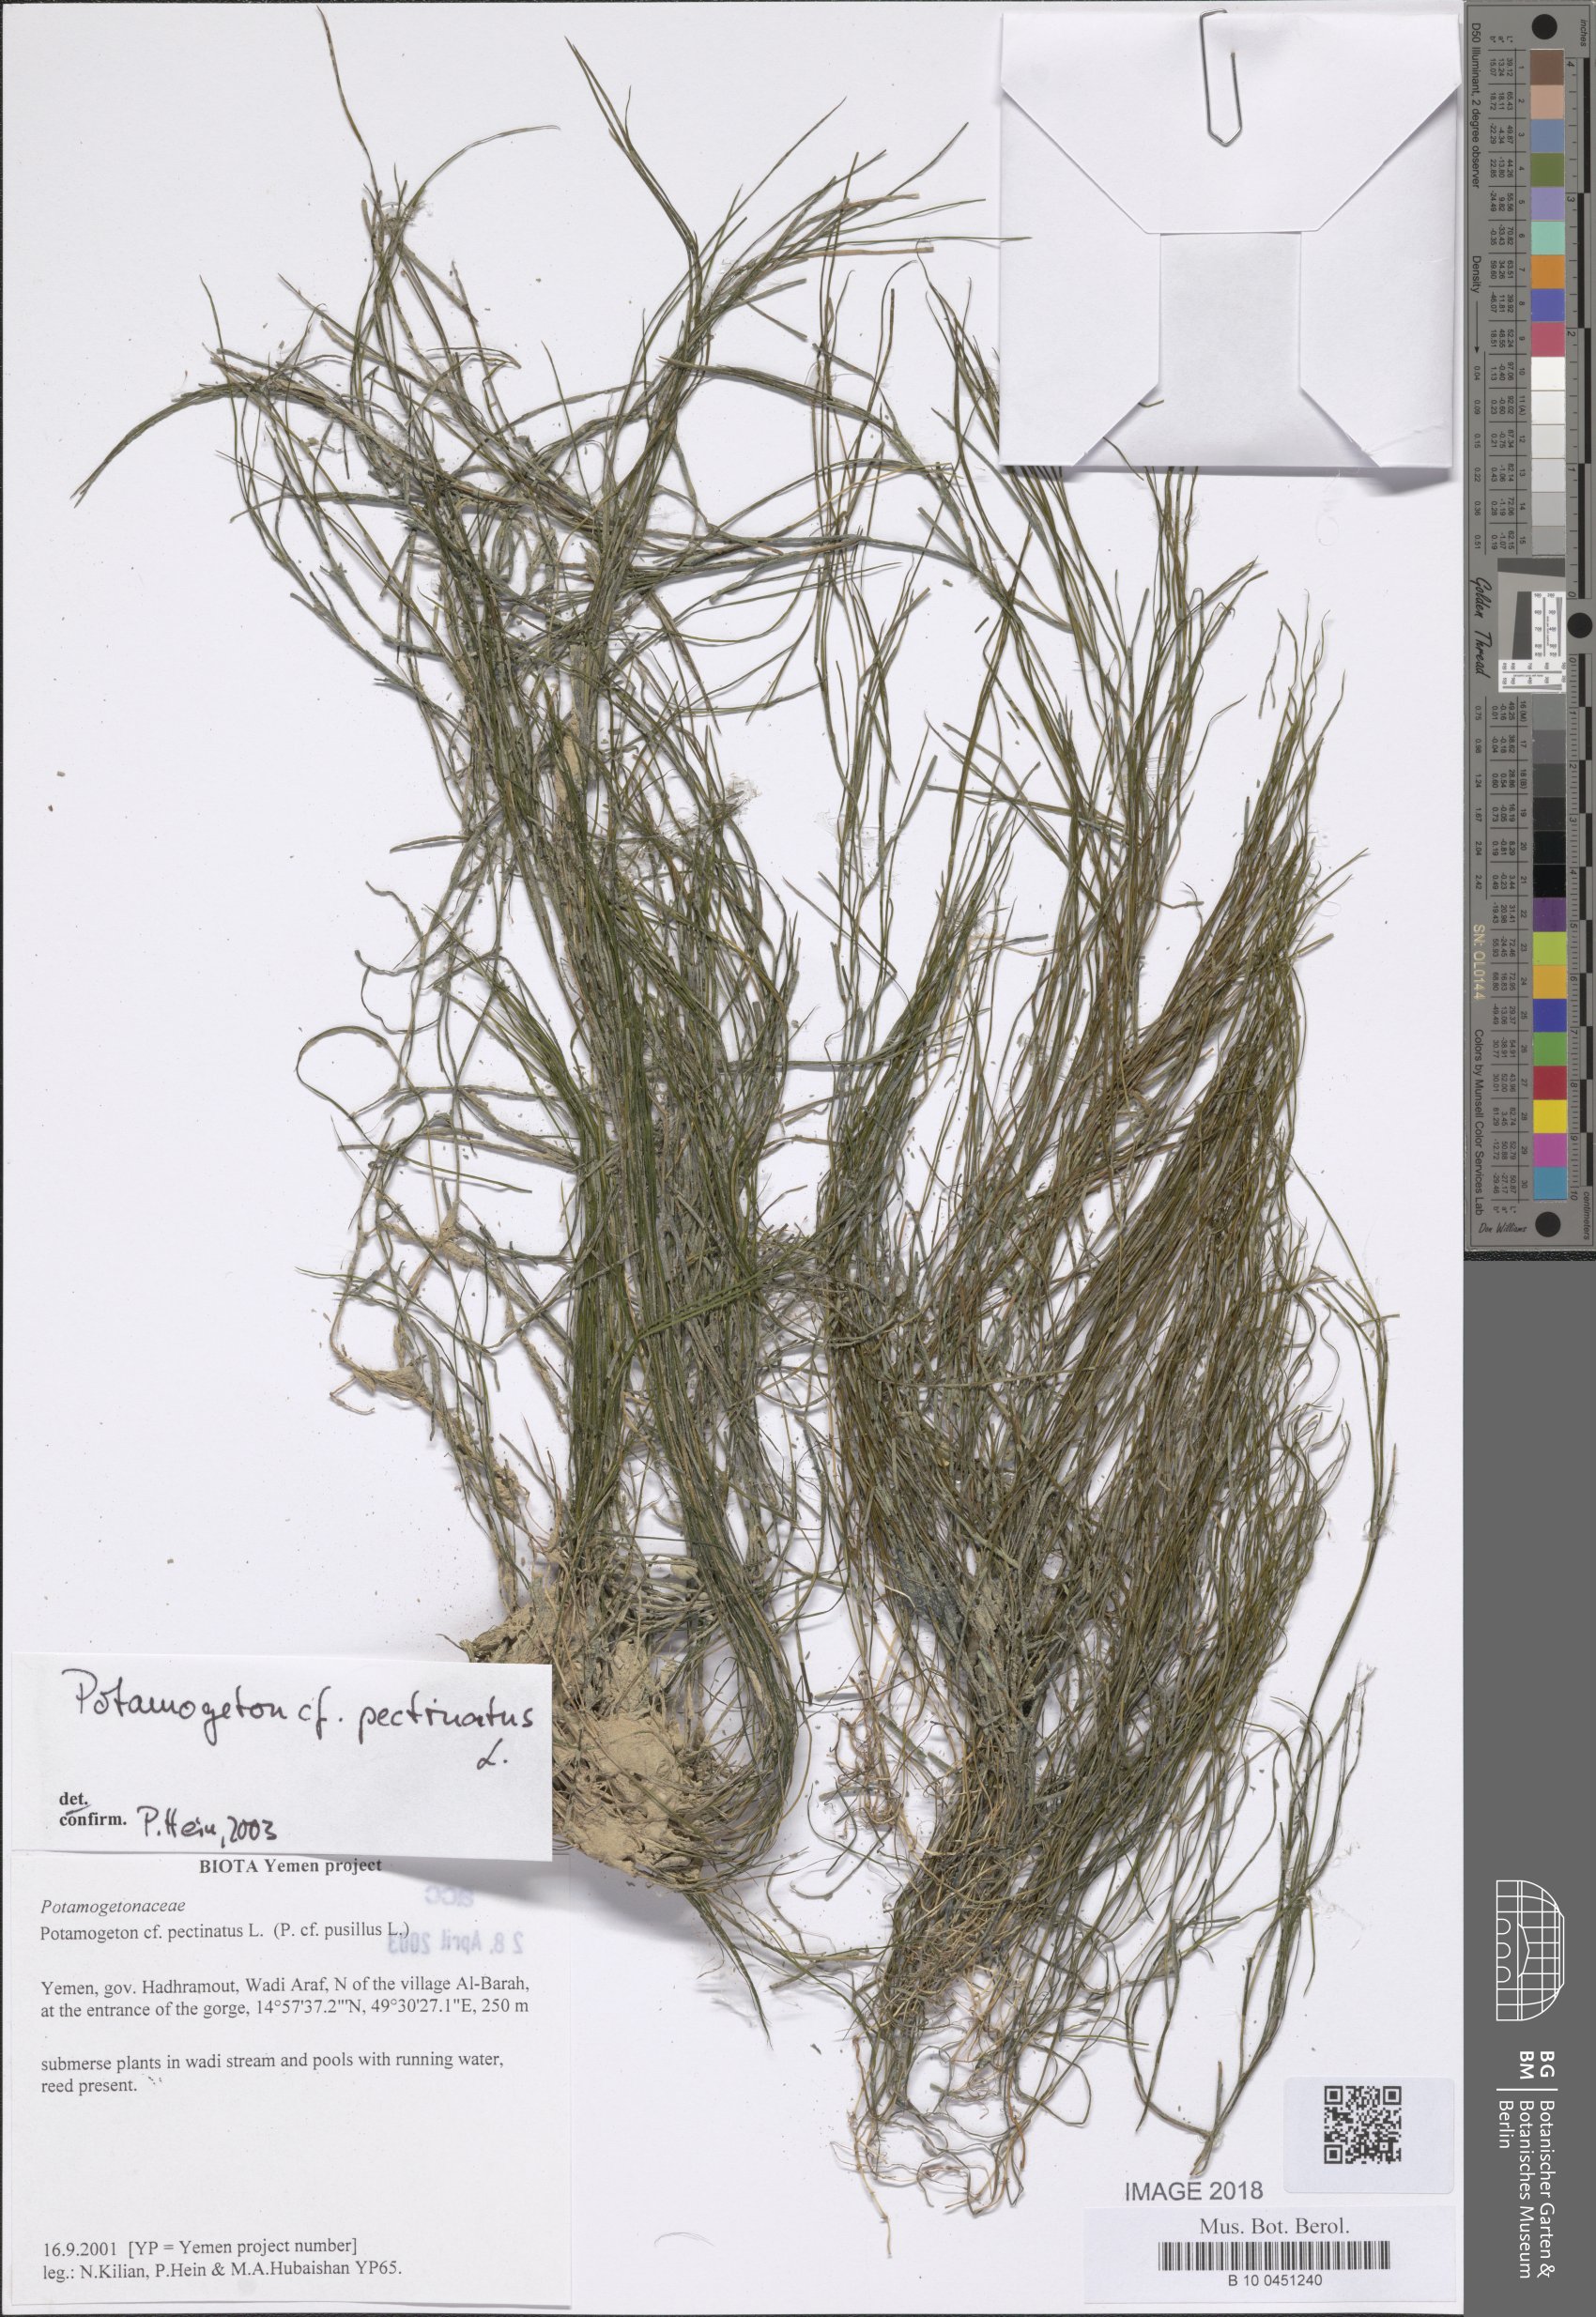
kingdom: Plantae
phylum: Tracheophyta
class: Liliopsida
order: Alismatales
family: Potamogetonaceae
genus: Stuckenia
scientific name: Stuckenia pectinata
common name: Sago pondweed
